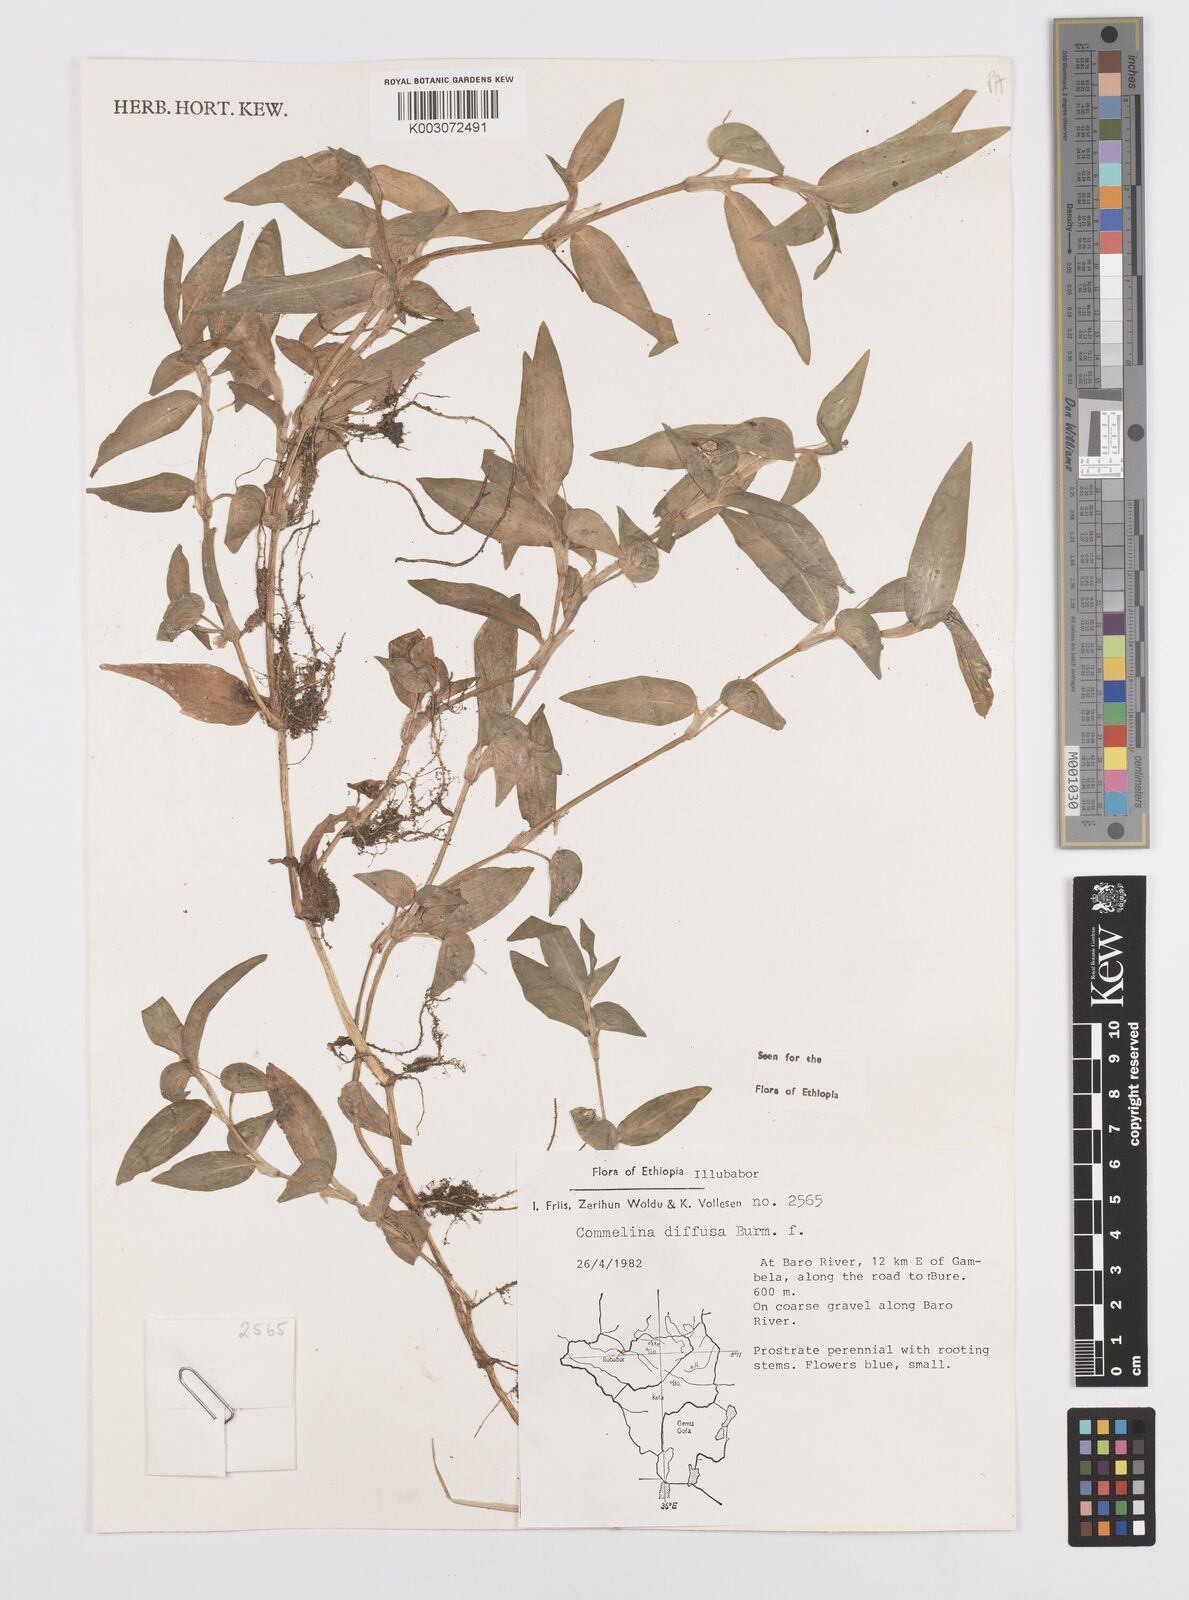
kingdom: Plantae
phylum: Tracheophyta
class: Liliopsida
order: Commelinales
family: Commelinaceae
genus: Commelina
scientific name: Commelina diffusa
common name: Climbing dayflower
